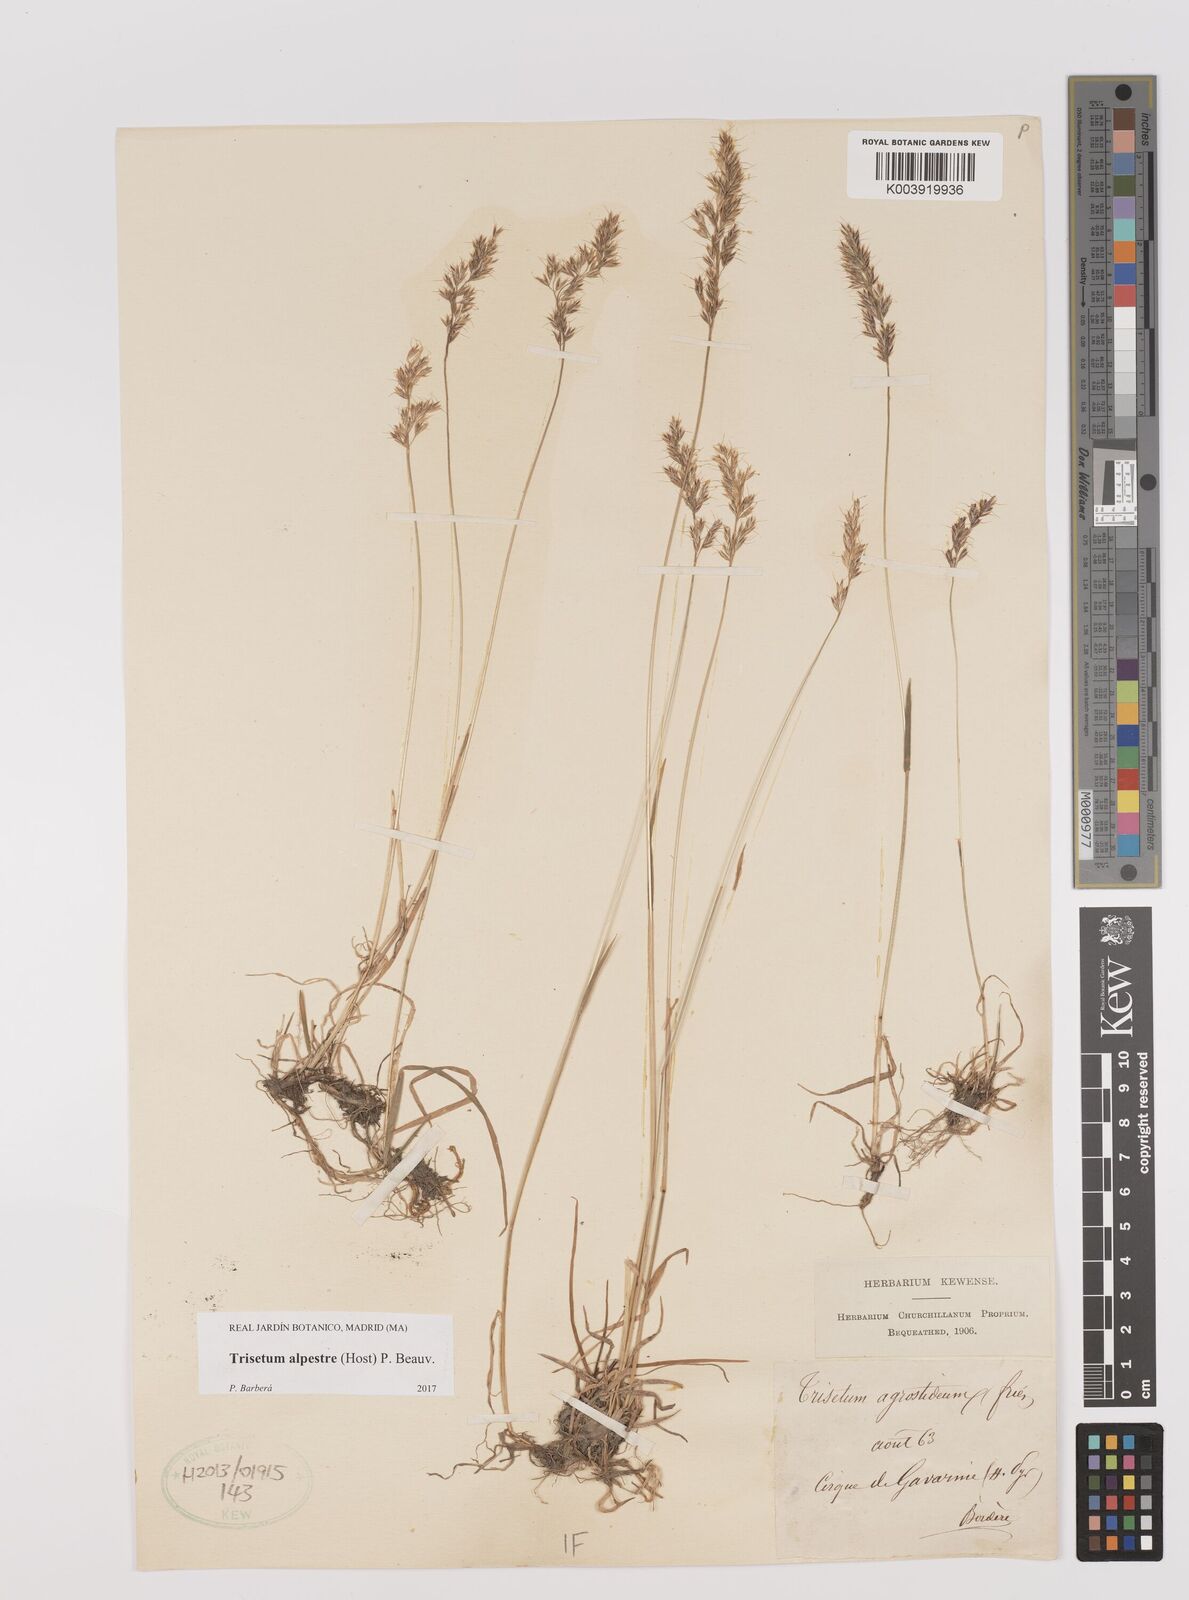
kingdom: Plantae
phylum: Tracheophyta
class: Liliopsida
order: Poales
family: Poaceae
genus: Trisetum
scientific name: Trisetum alpestre
